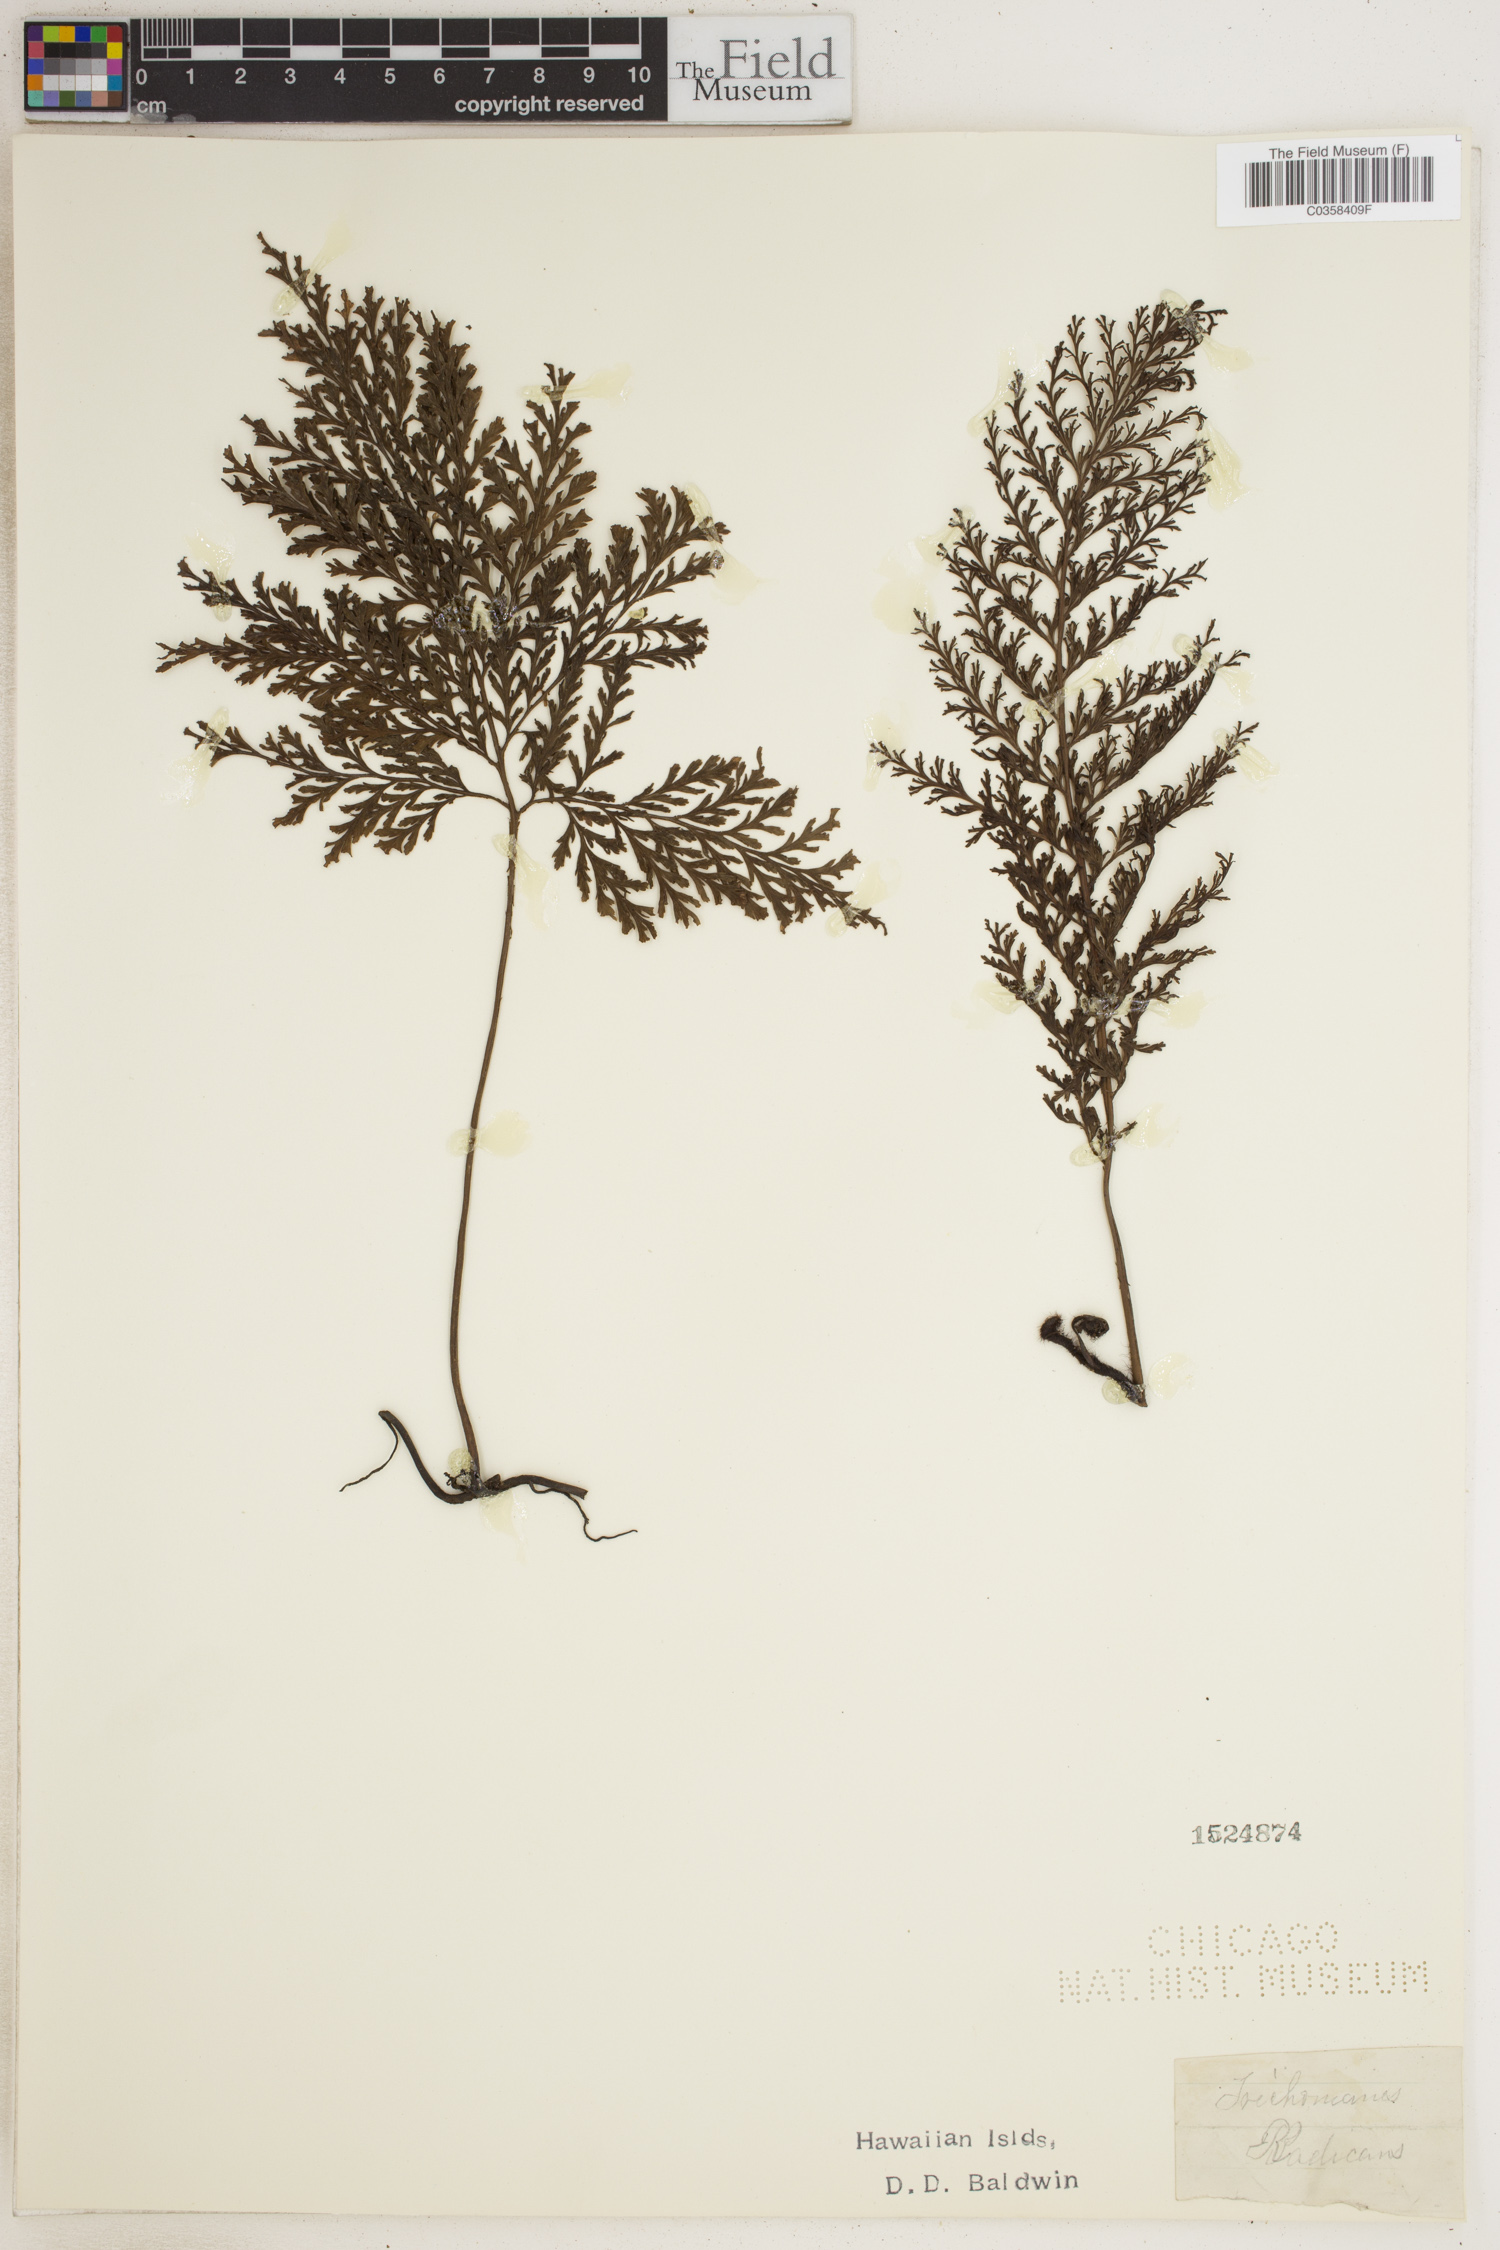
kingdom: Plantae
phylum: Tracheophyta
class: Polypodiopsida
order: Hymenophyllales
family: Hymenophyllaceae
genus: Vandenboschia
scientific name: Vandenboschia radicans
